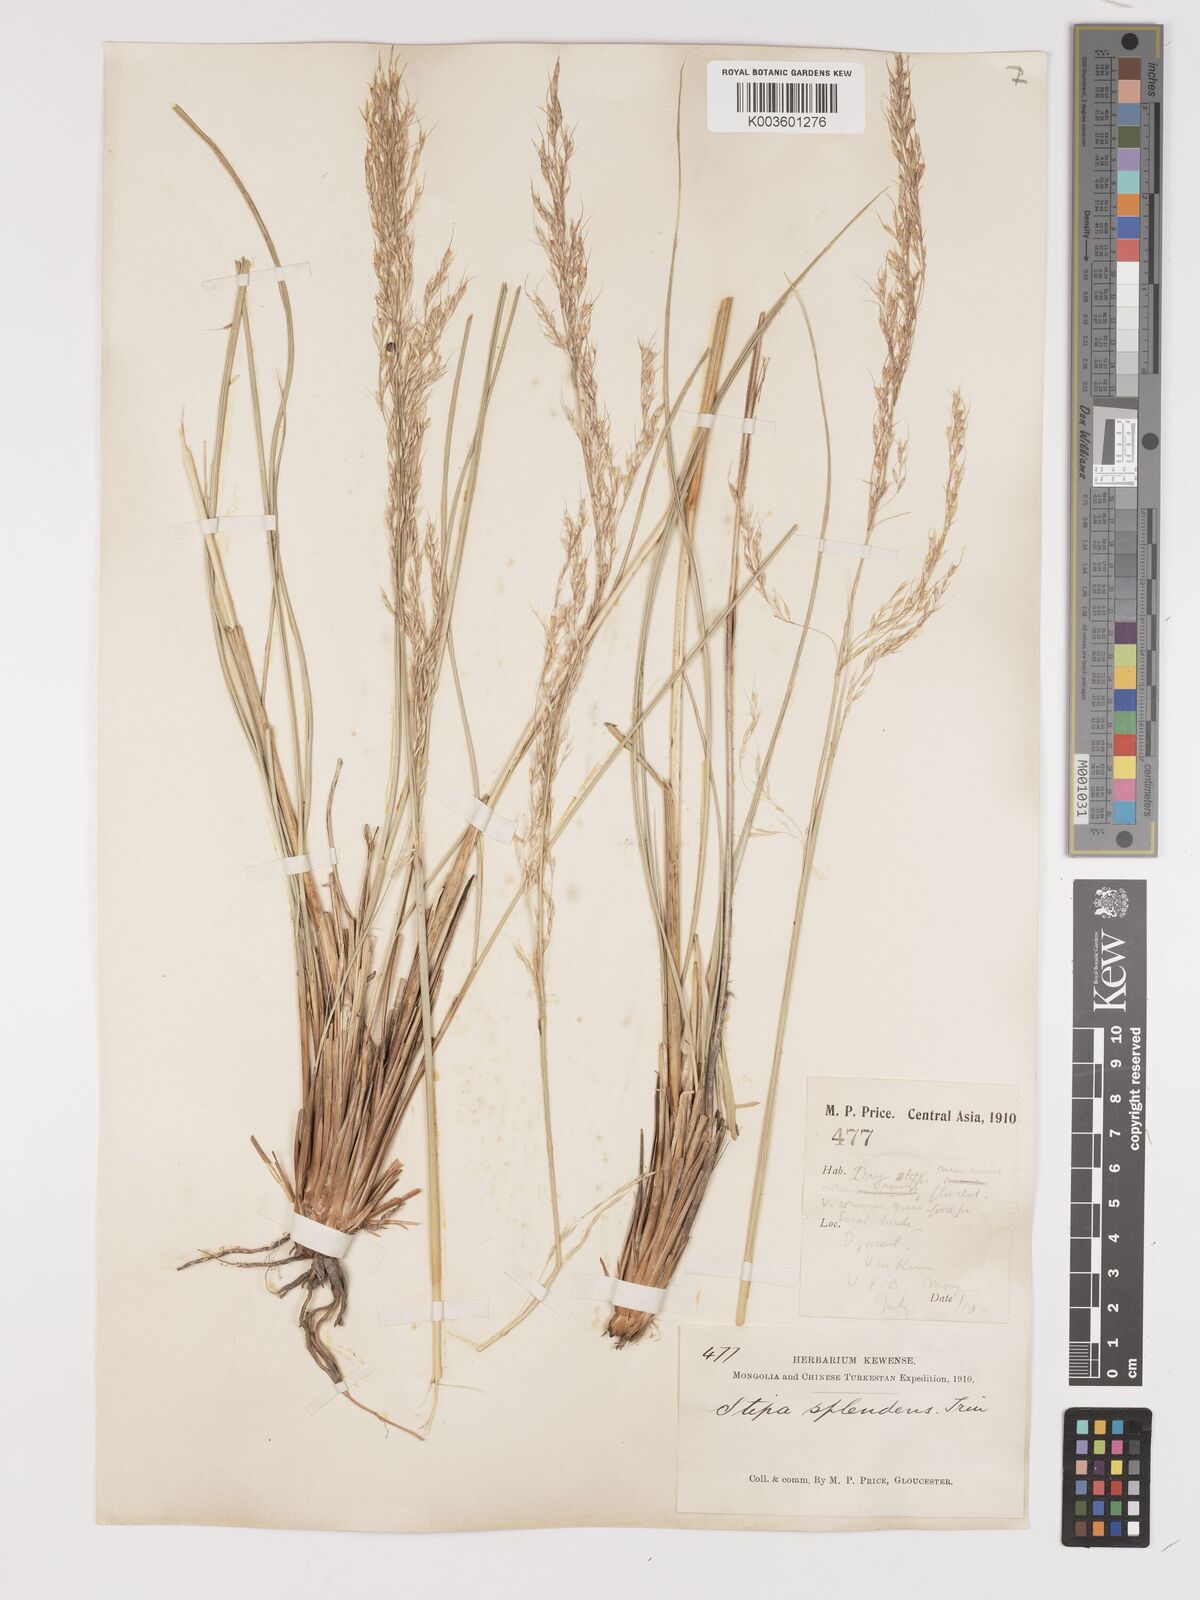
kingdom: Plantae
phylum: Tracheophyta
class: Liliopsida
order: Poales
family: Poaceae
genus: Neotrinia
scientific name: Neotrinia splendens
